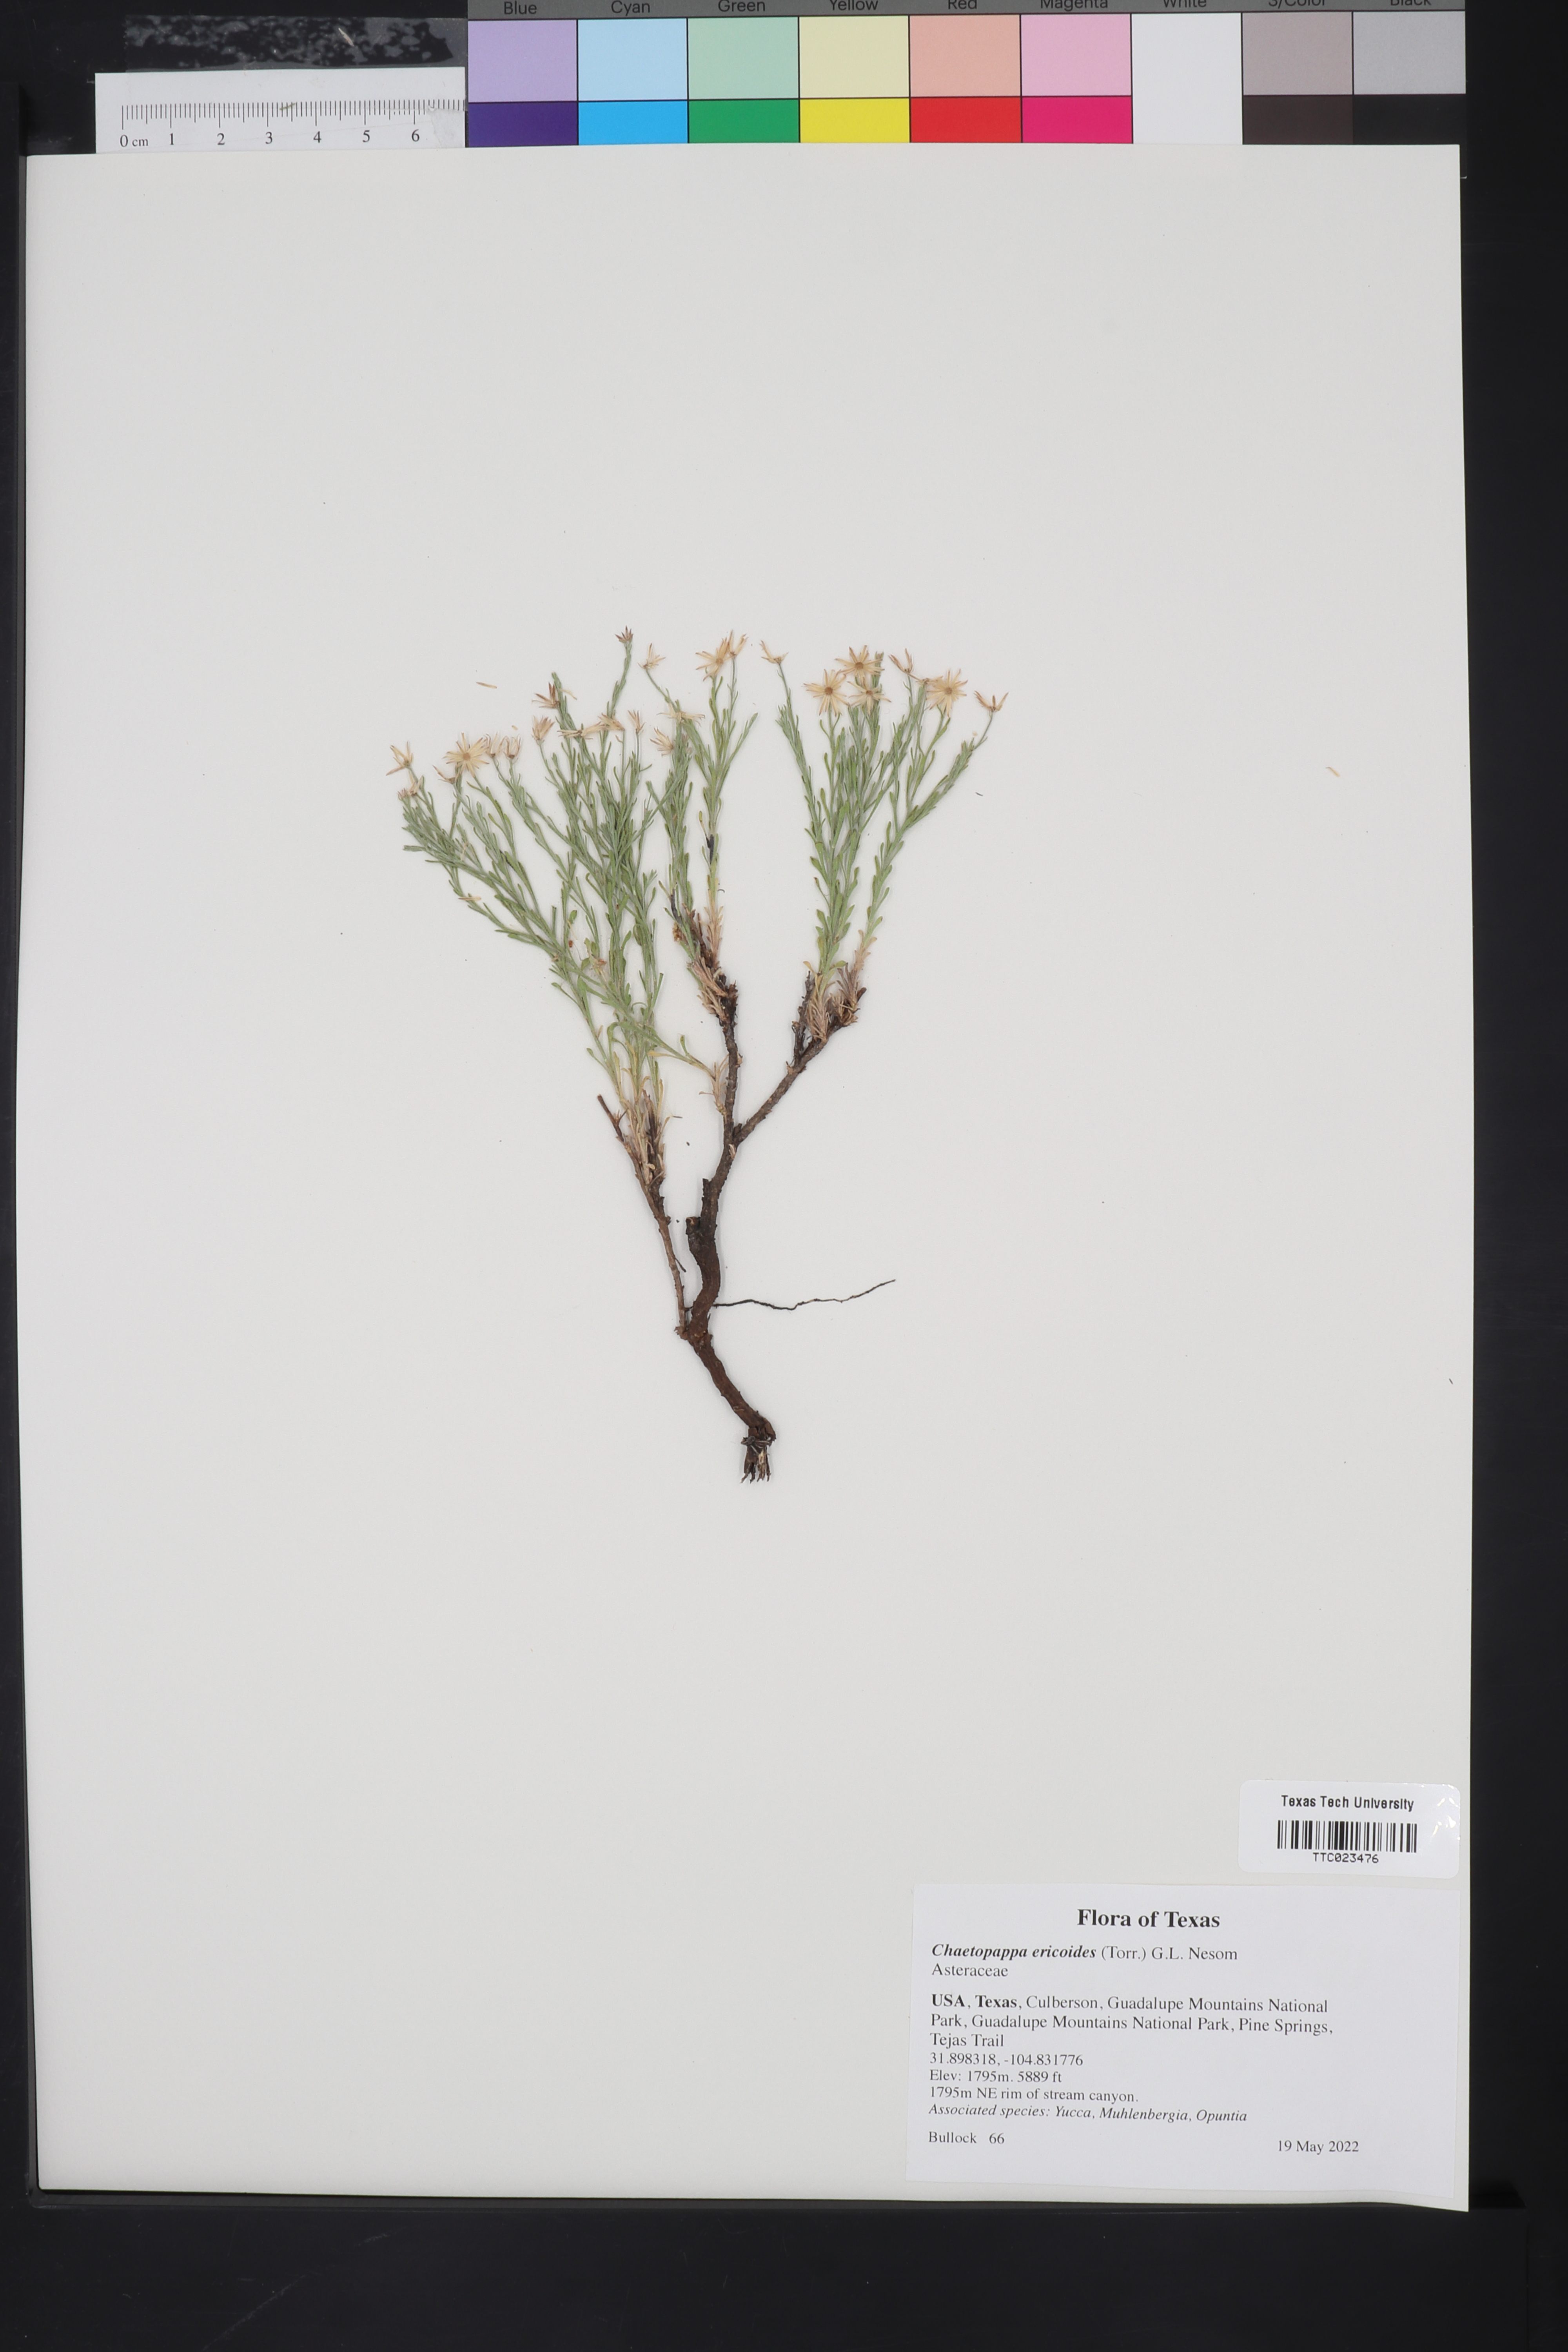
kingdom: Plantae
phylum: Tracheophyta
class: Magnoliopsida
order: Lamiales
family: Lamiaceae
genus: Salvia
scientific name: Salvia farinacea
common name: Mealy sage
